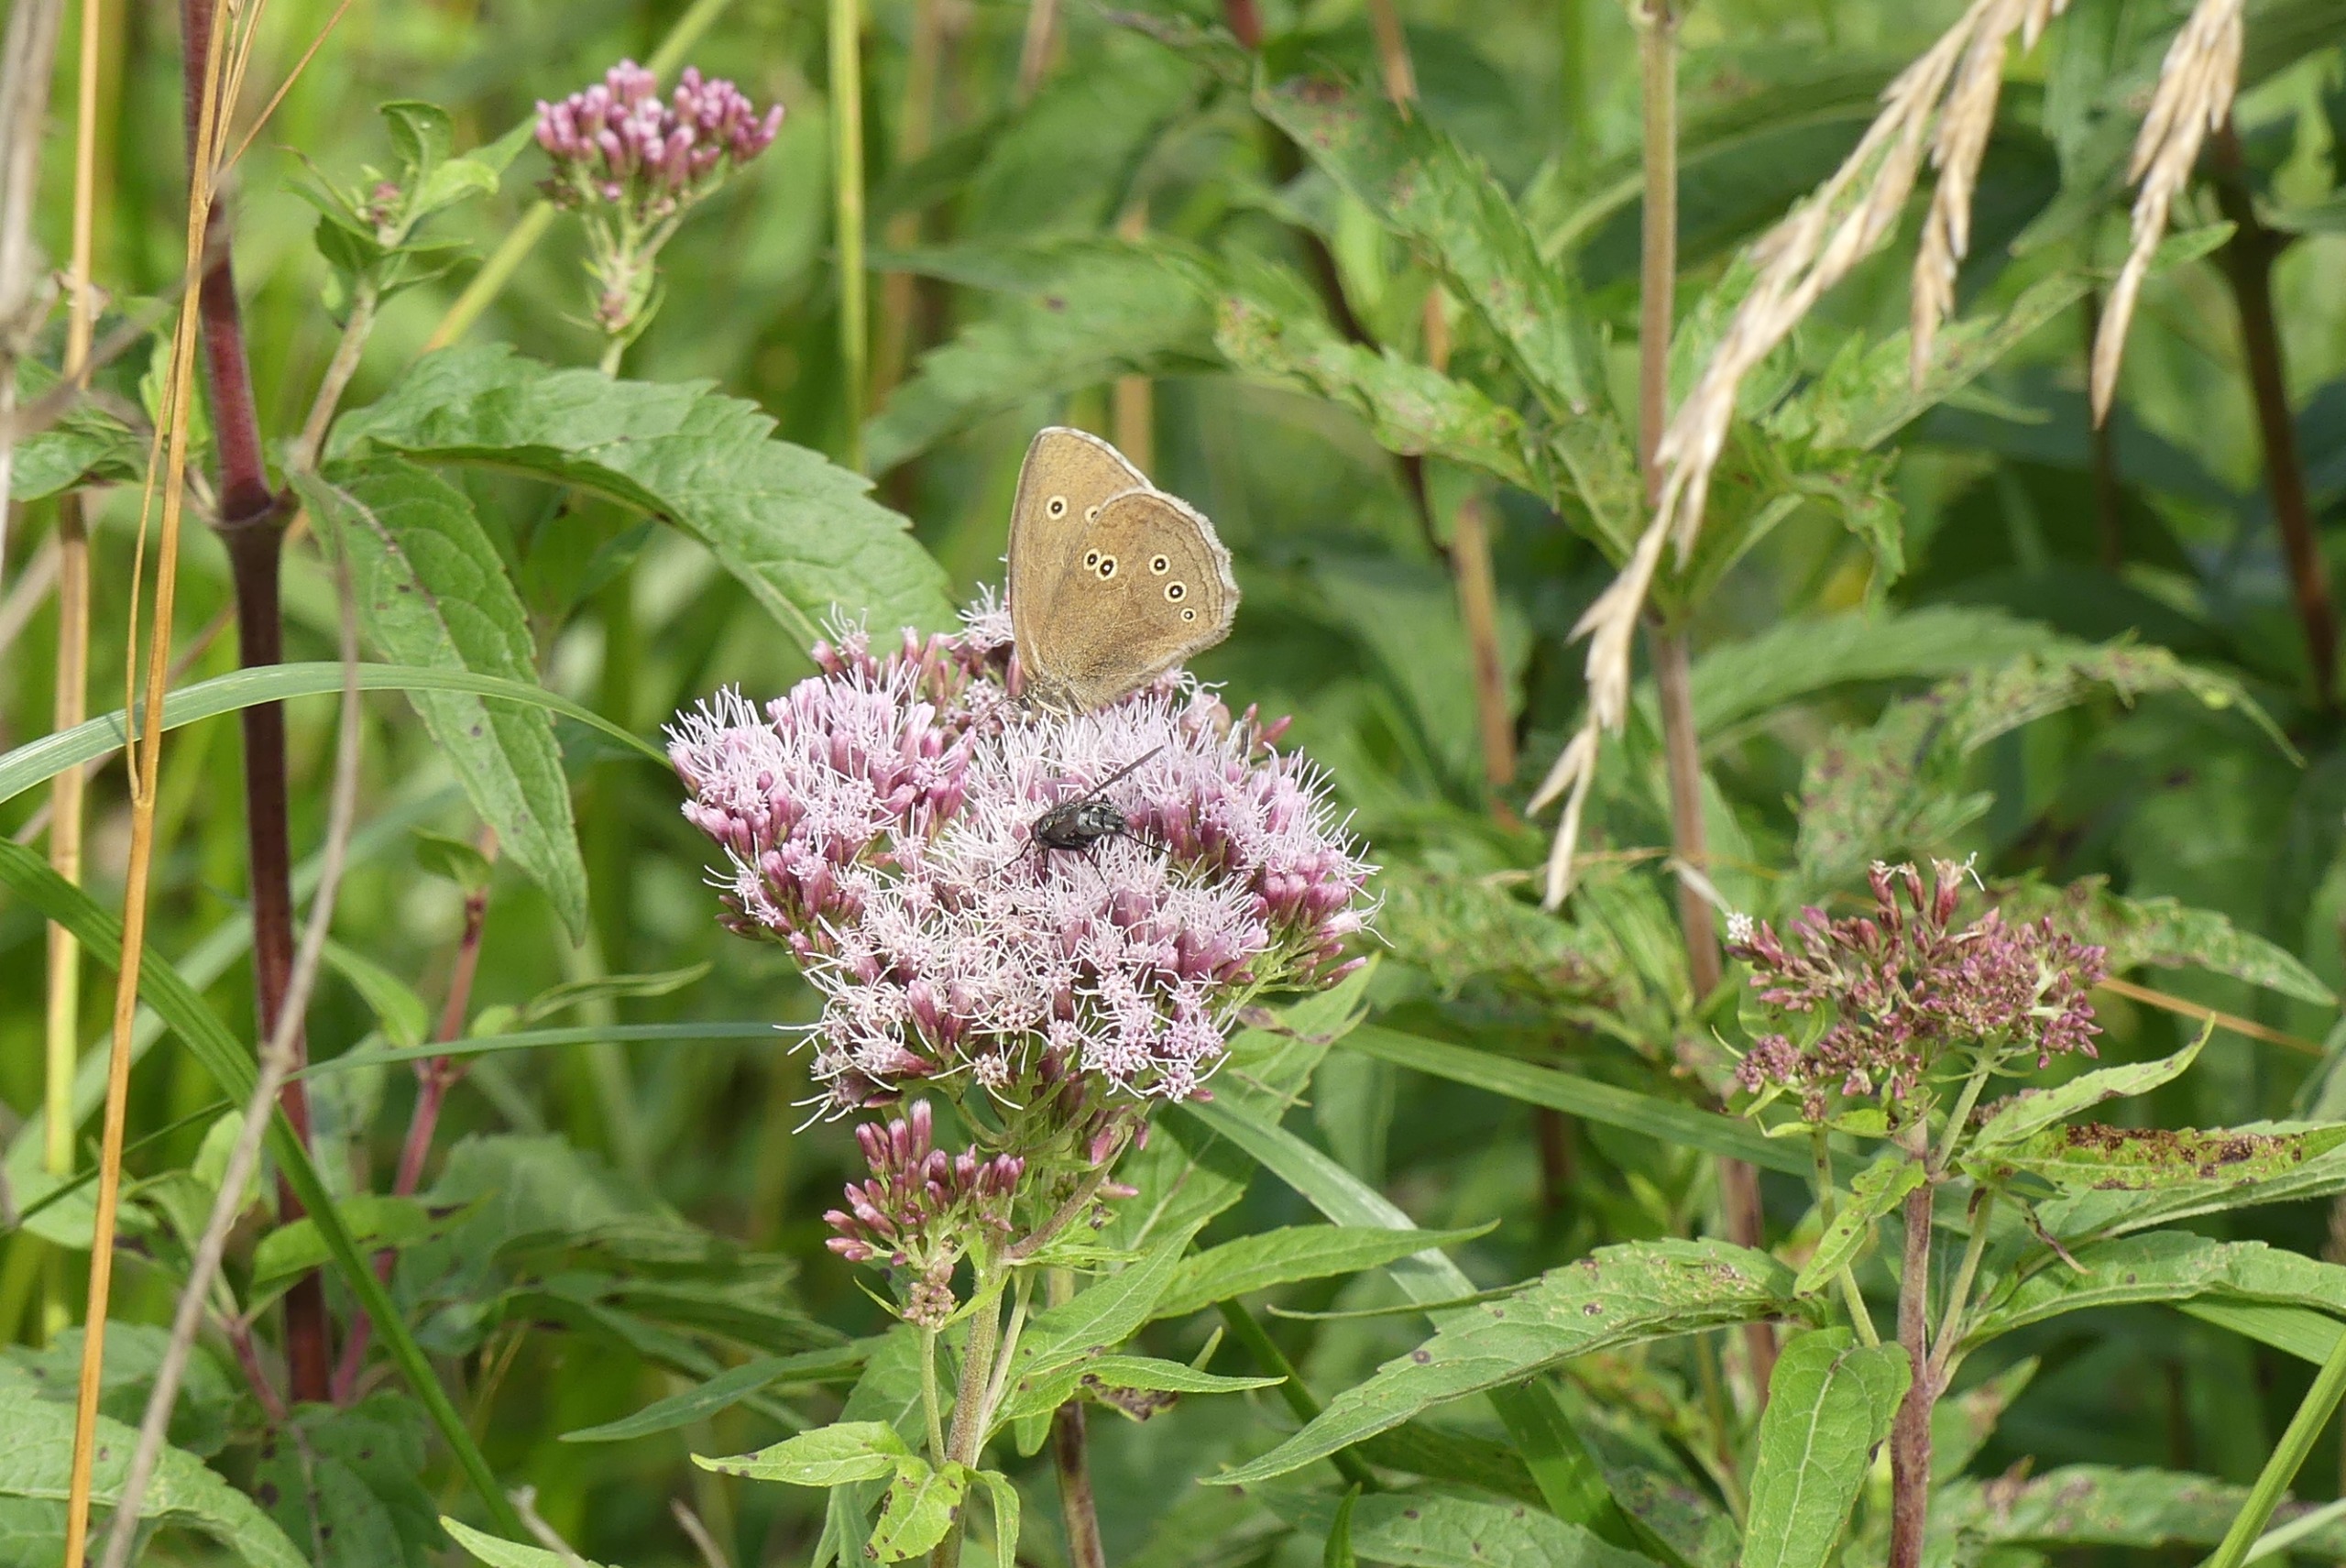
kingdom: Animalia
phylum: Arthropoda
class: Insecta
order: Lepidoptera
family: Nymphalidae
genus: Aphantopus
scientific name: Aphantopus hyperantus
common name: Engrandøje
